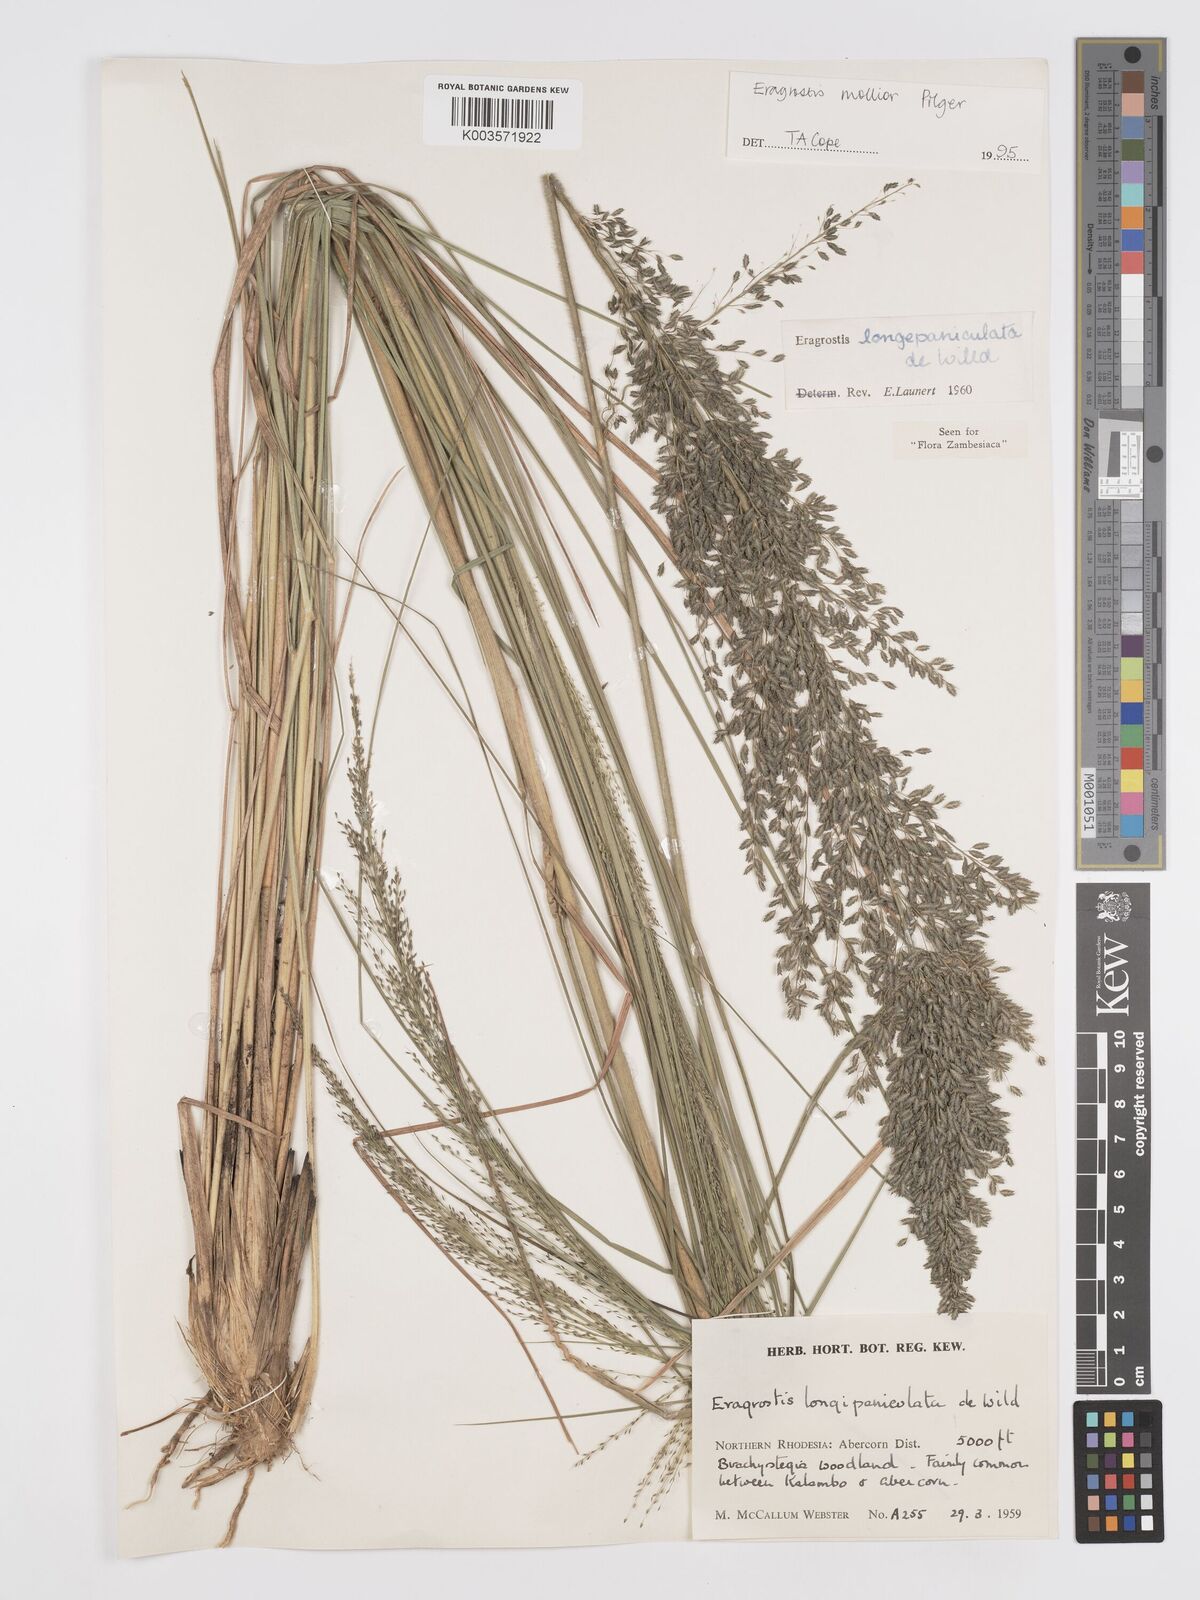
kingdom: Plantae
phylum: Tracheophyta
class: Liliopsida
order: Poales
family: Poaceae
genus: Eragrostis
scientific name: Eragrostis mollior
